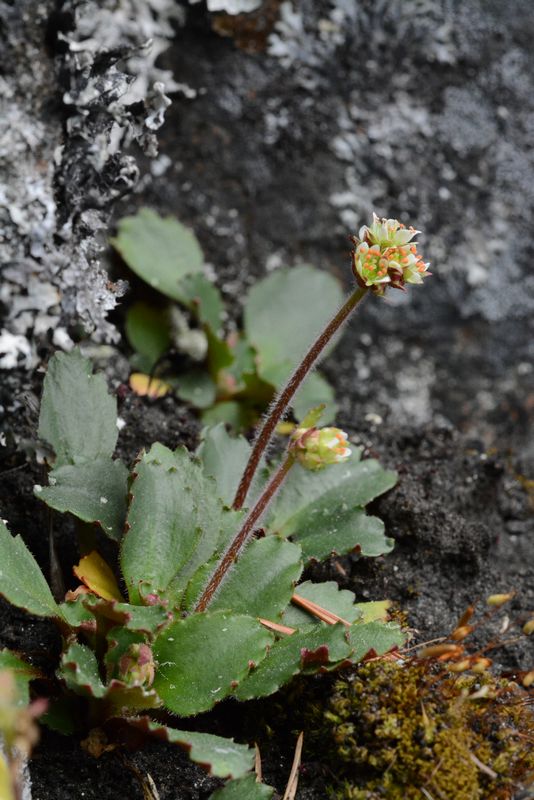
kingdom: Plantae
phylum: Tracheophyta
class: Magnoliopsida
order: Saxifragales
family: Saxifragaceae
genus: Micranthes
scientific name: Micranthes nivalis
